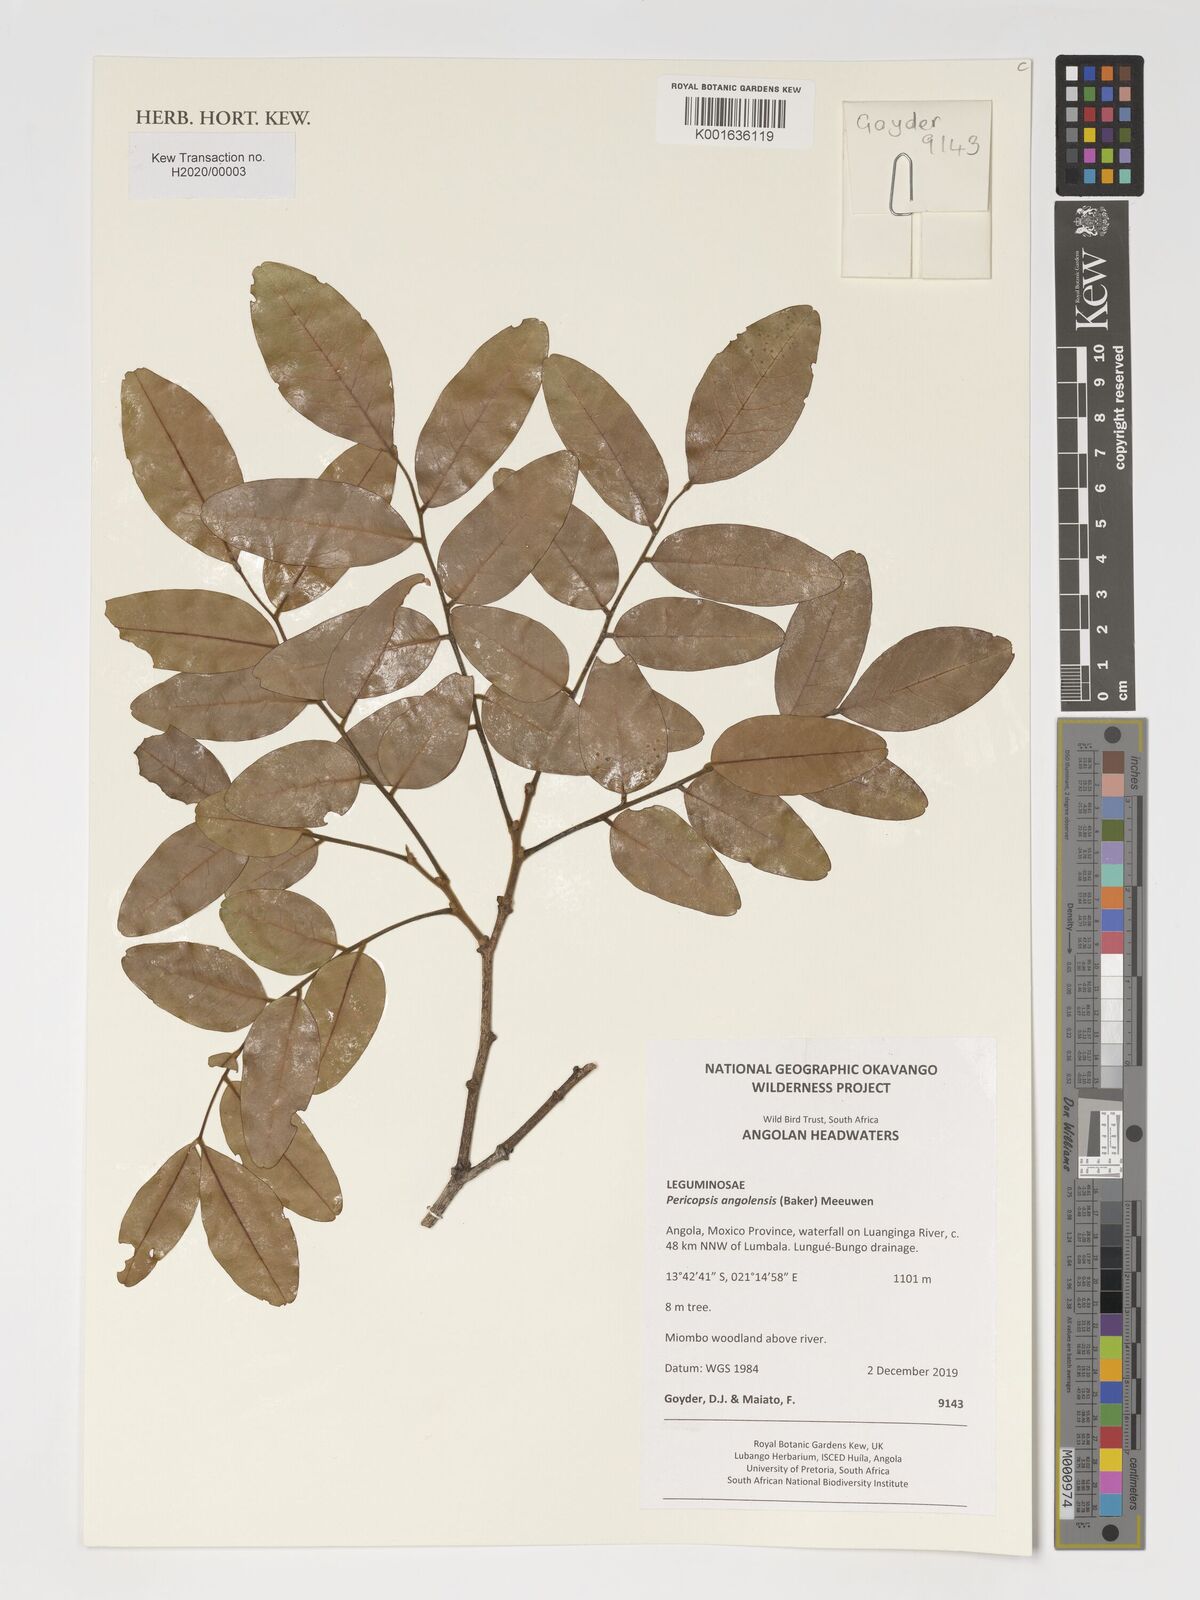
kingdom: Plantae
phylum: Tracheophyta
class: Magnoliopsida
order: Fabales
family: Fabaceae
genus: Pericopsis
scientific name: Pericopsis angolensis
